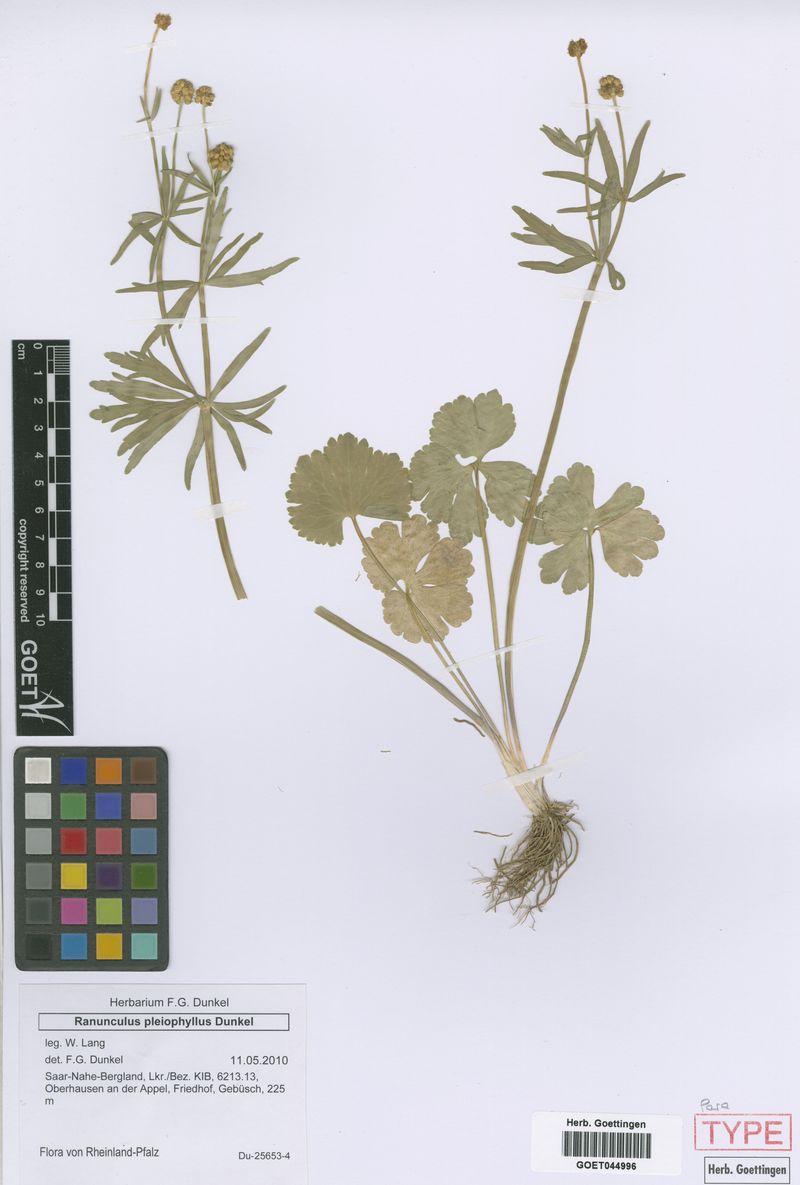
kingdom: Plantae
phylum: Tracheophyta
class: Magnoliopsida
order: Ranunculales
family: Ranunculaceae
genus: Ranunculus
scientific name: Ranunculus pleiophyllus
